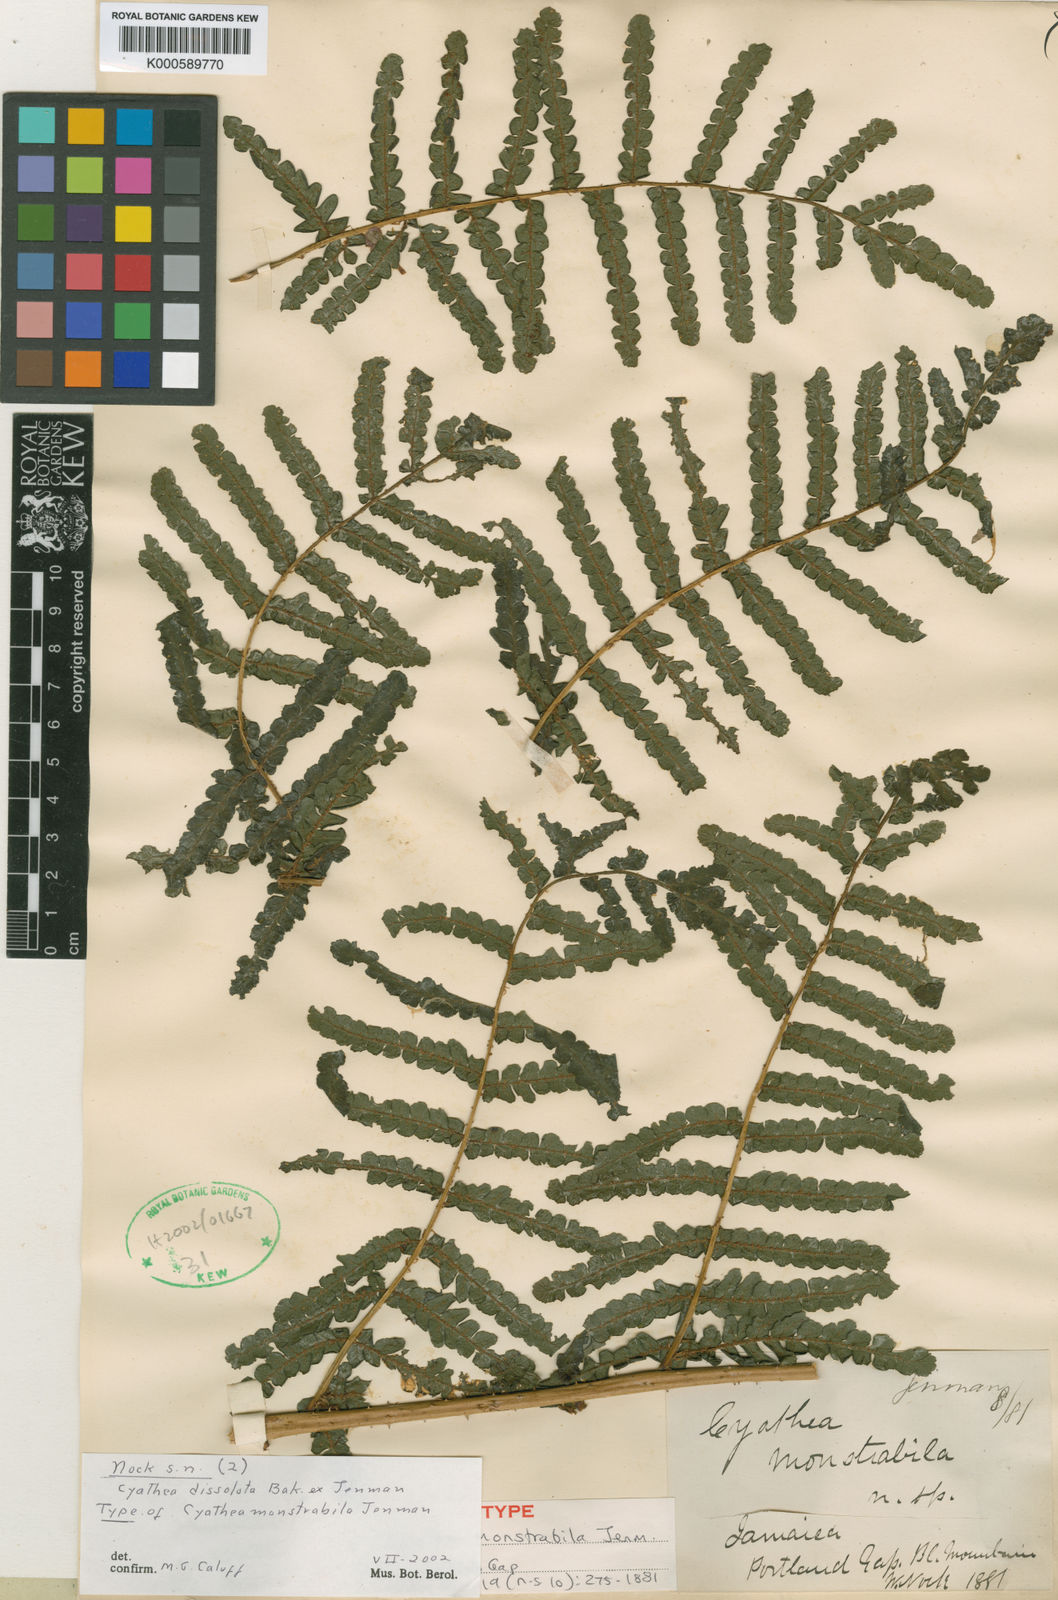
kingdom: Plantae
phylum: Tracheophyta
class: Polypodiopsida
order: Cyatheales
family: Cyatheaceae
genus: Cyathea
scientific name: Cyathea
